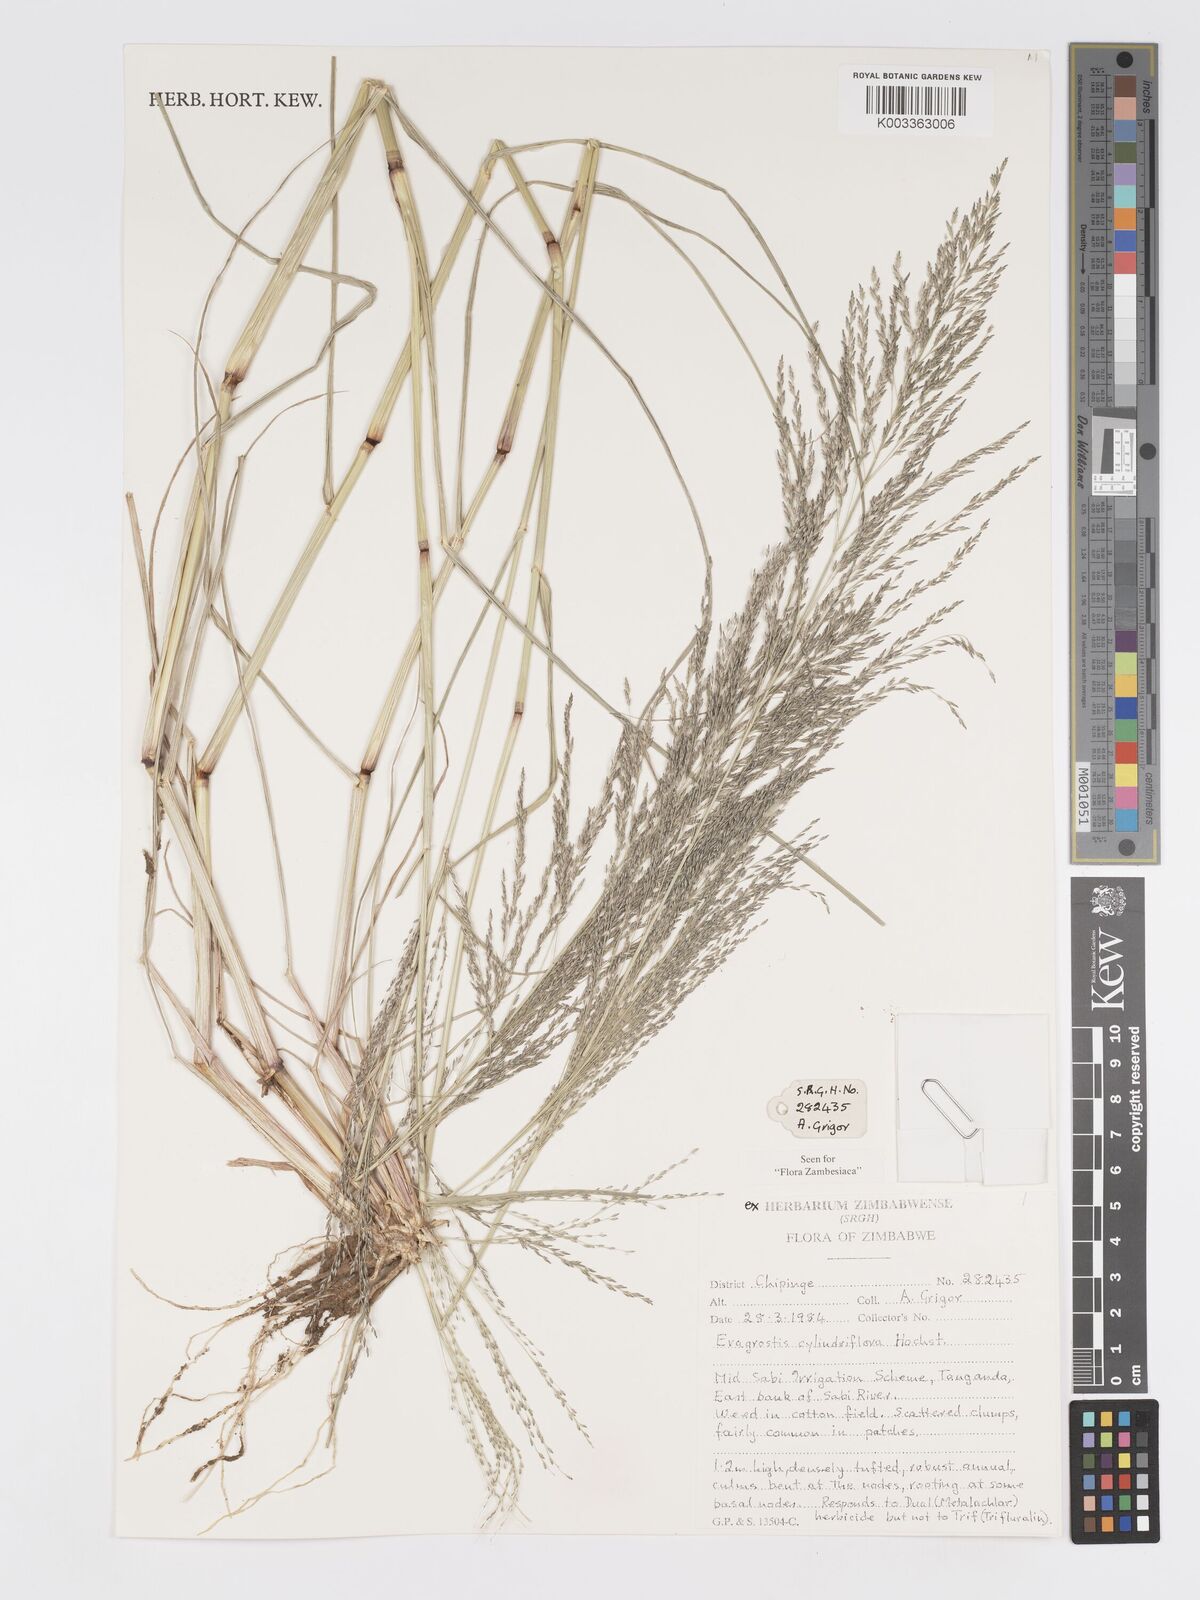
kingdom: Plantae
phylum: Tracheophyta
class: Liliopsida
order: Poales
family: Poaceae
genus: Eragrostis
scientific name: Eragrostis cylindriflora
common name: Cylinderflower lovegrass
